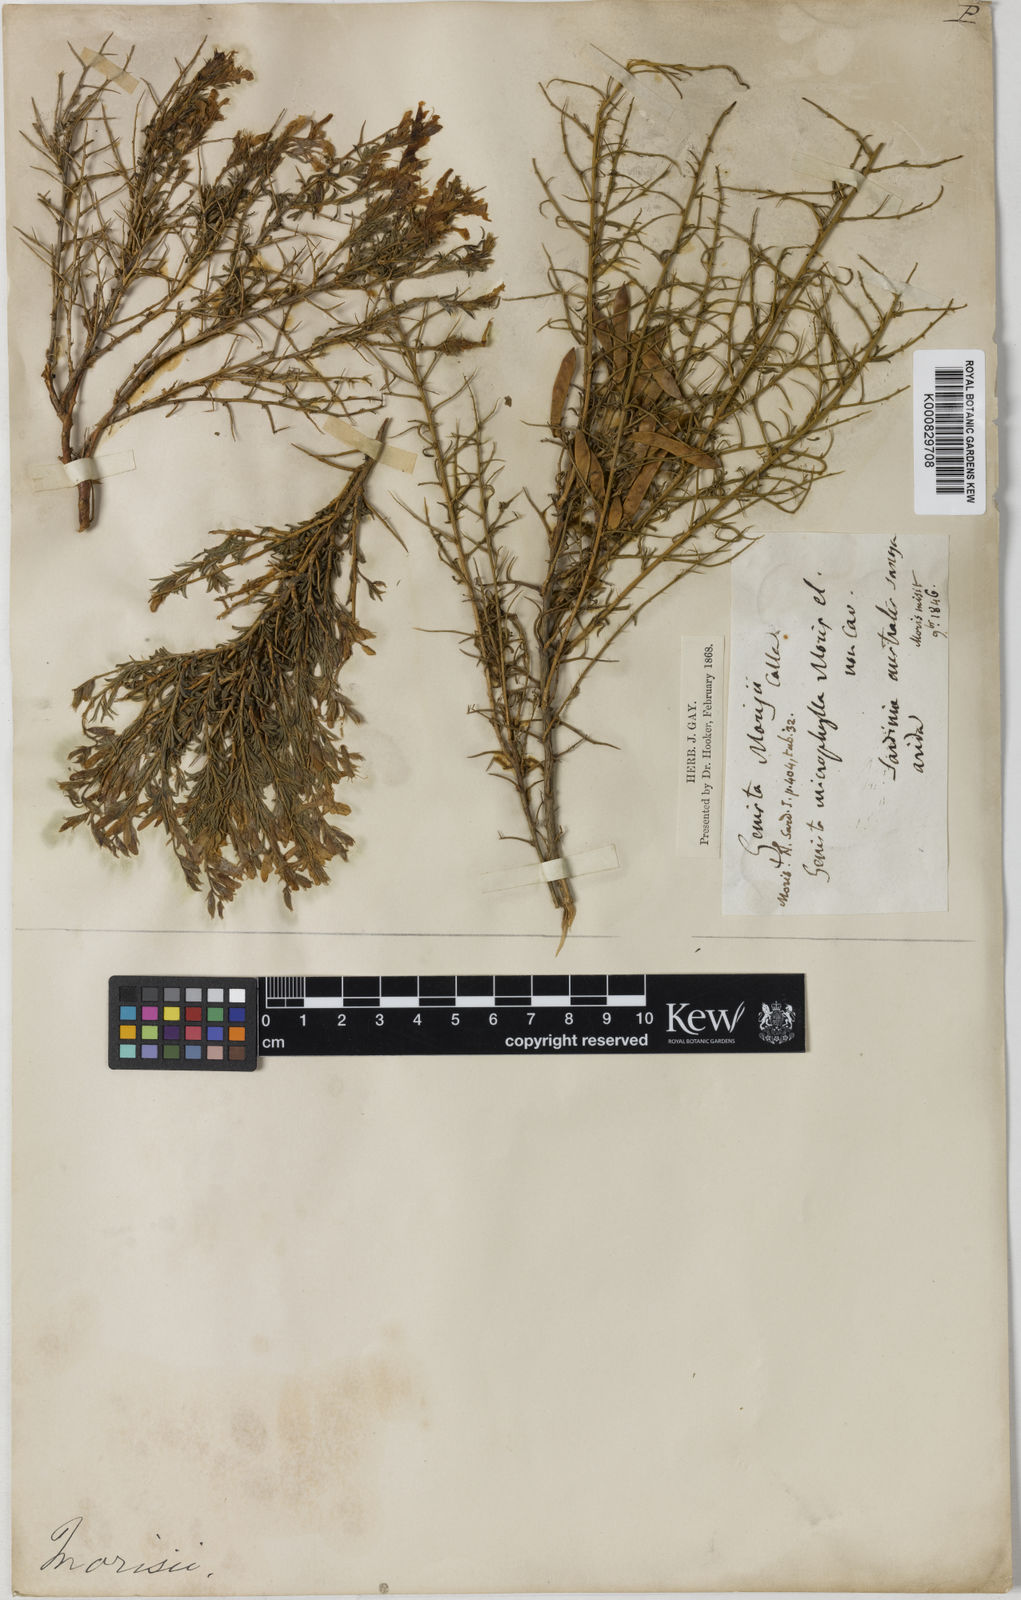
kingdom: Plantae
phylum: Tracheophyta
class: Magnoliopsida
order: Fabales
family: Fabaceae
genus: Genista
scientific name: Genista morisii
